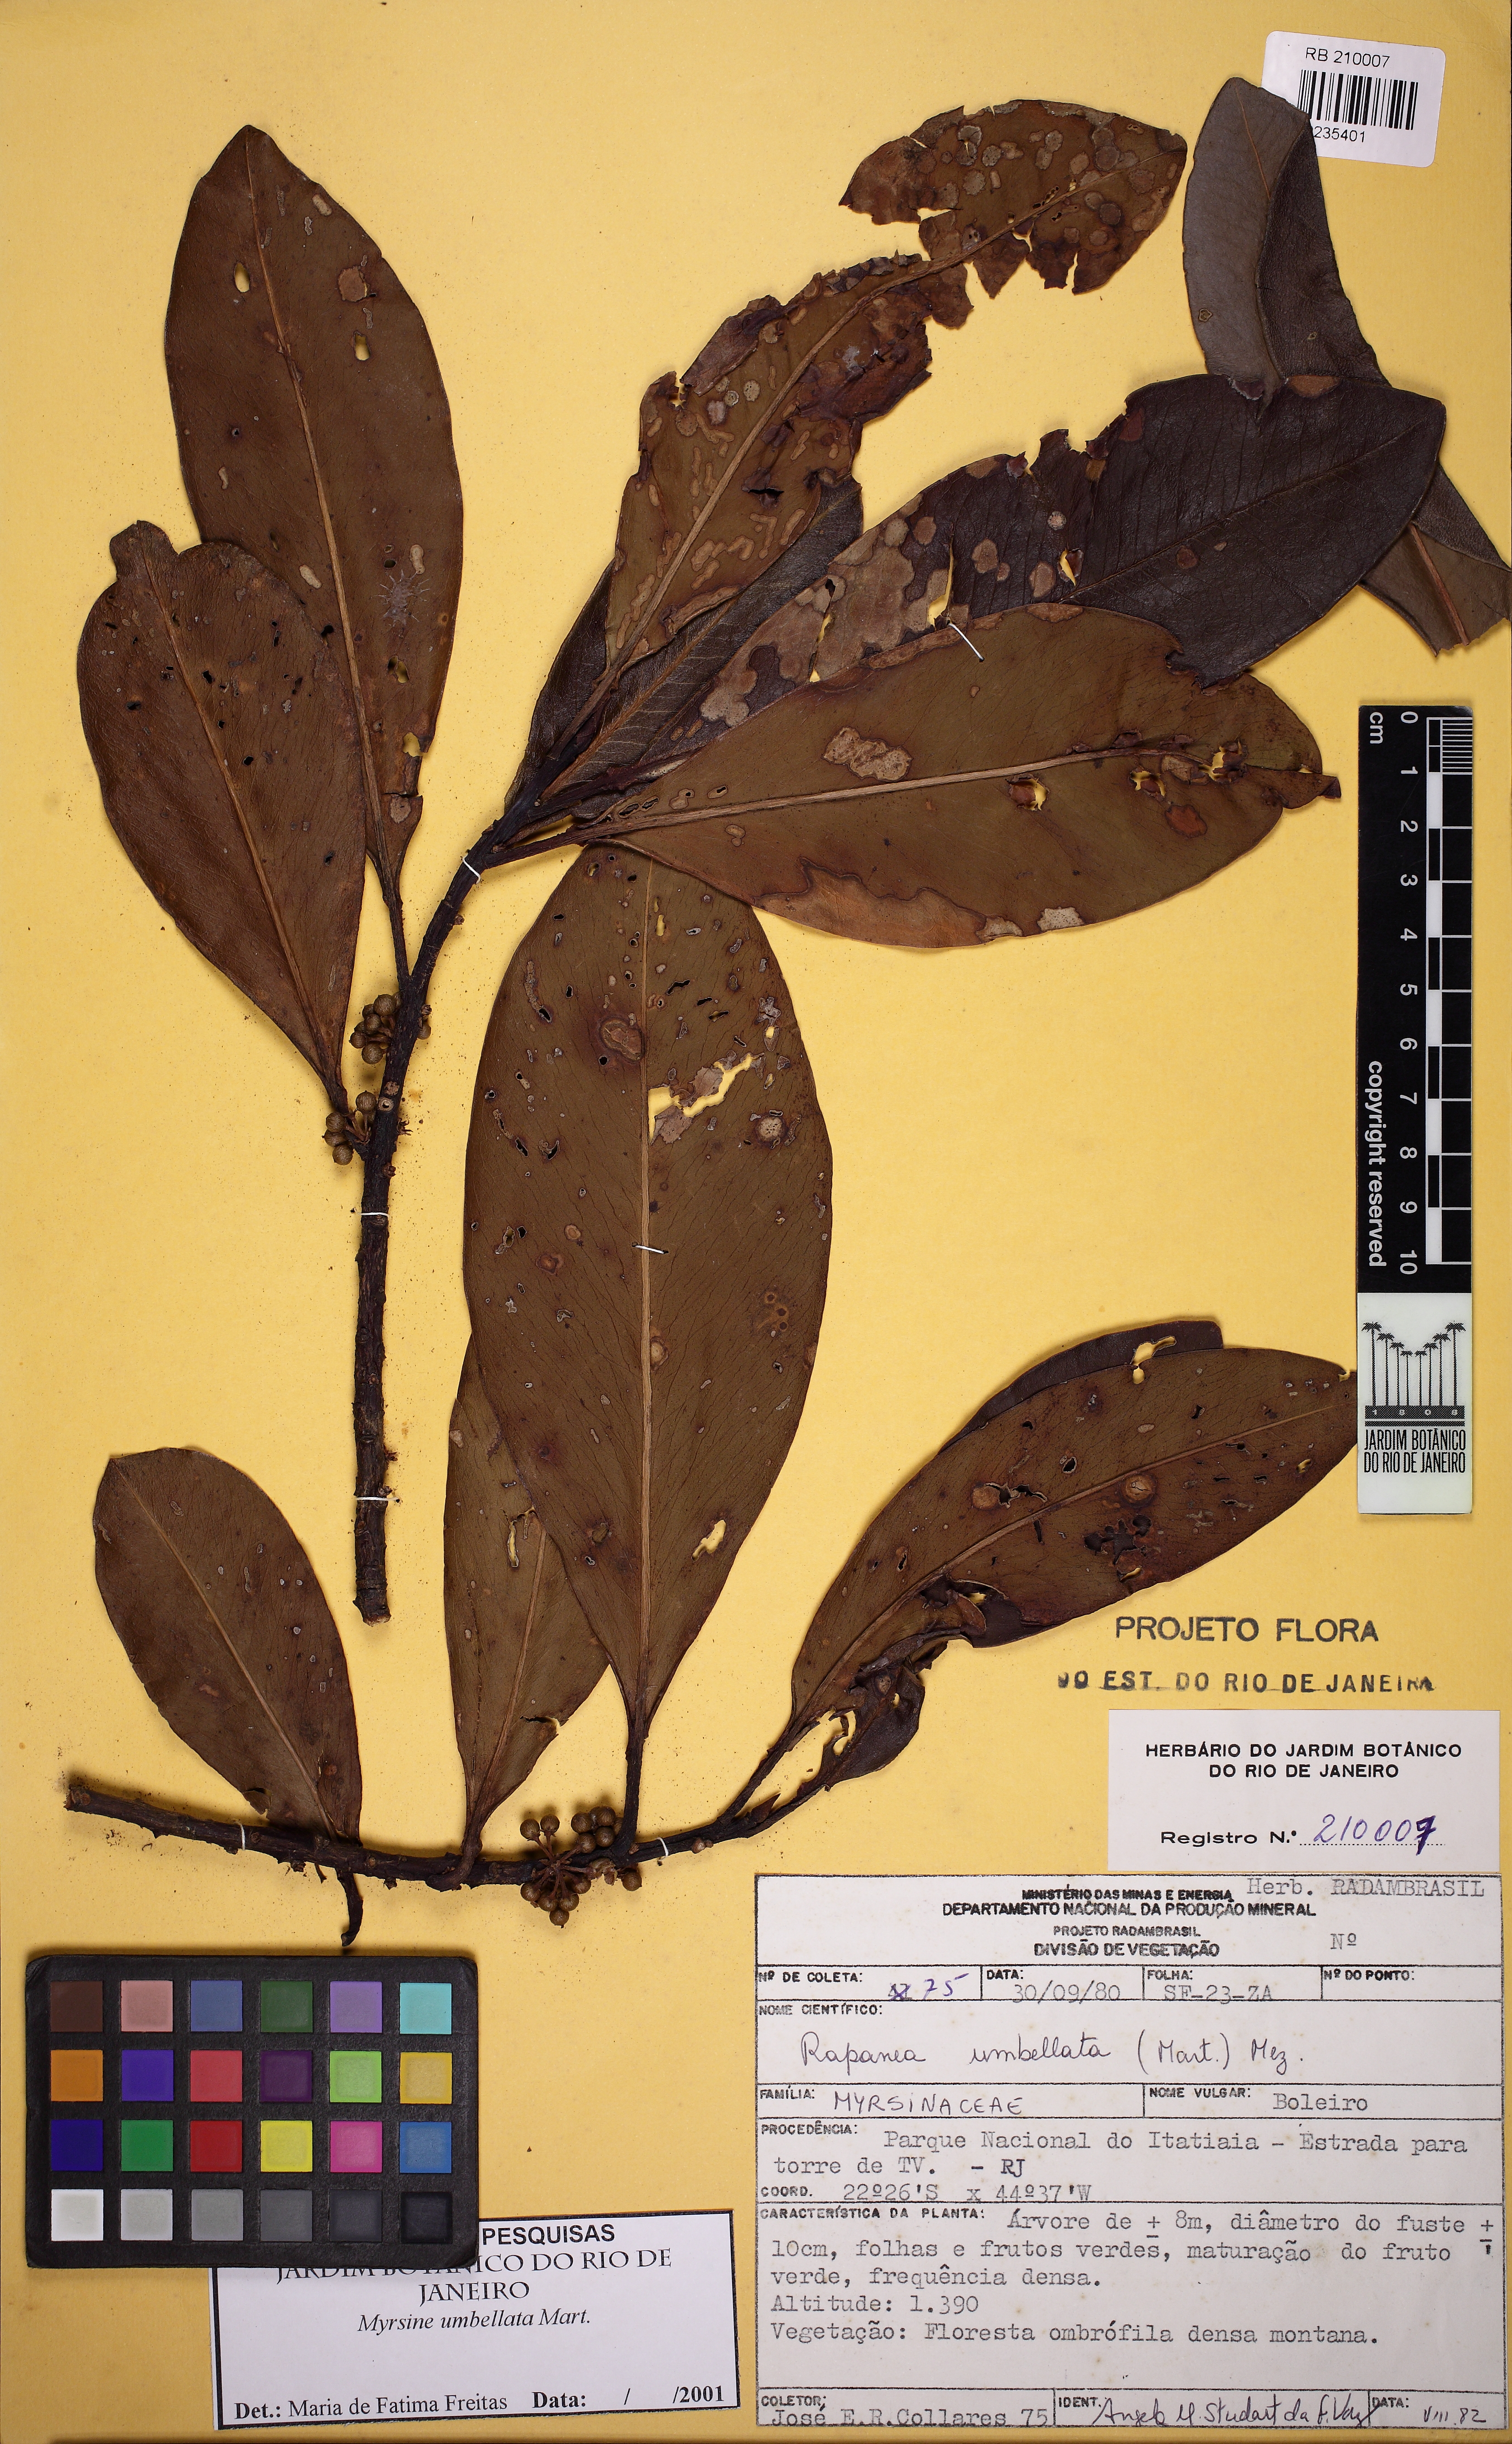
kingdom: Plantae
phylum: Tracheophyta
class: Magnoliopsida
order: Ericales
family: Primulaceae
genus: Myrsine
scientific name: Myrsine umbellata
